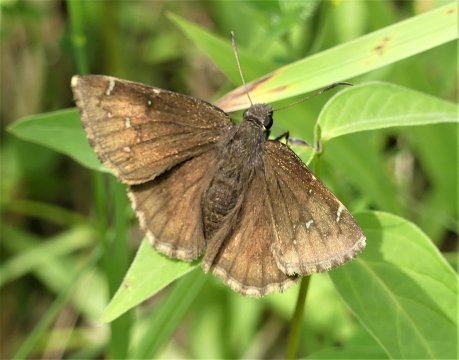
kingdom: Animalia
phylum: Arthropoda
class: Insecta
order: Lepidoptera
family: Hesperiidae
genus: Autochton
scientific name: Autochton
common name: Northern Cloudywing
